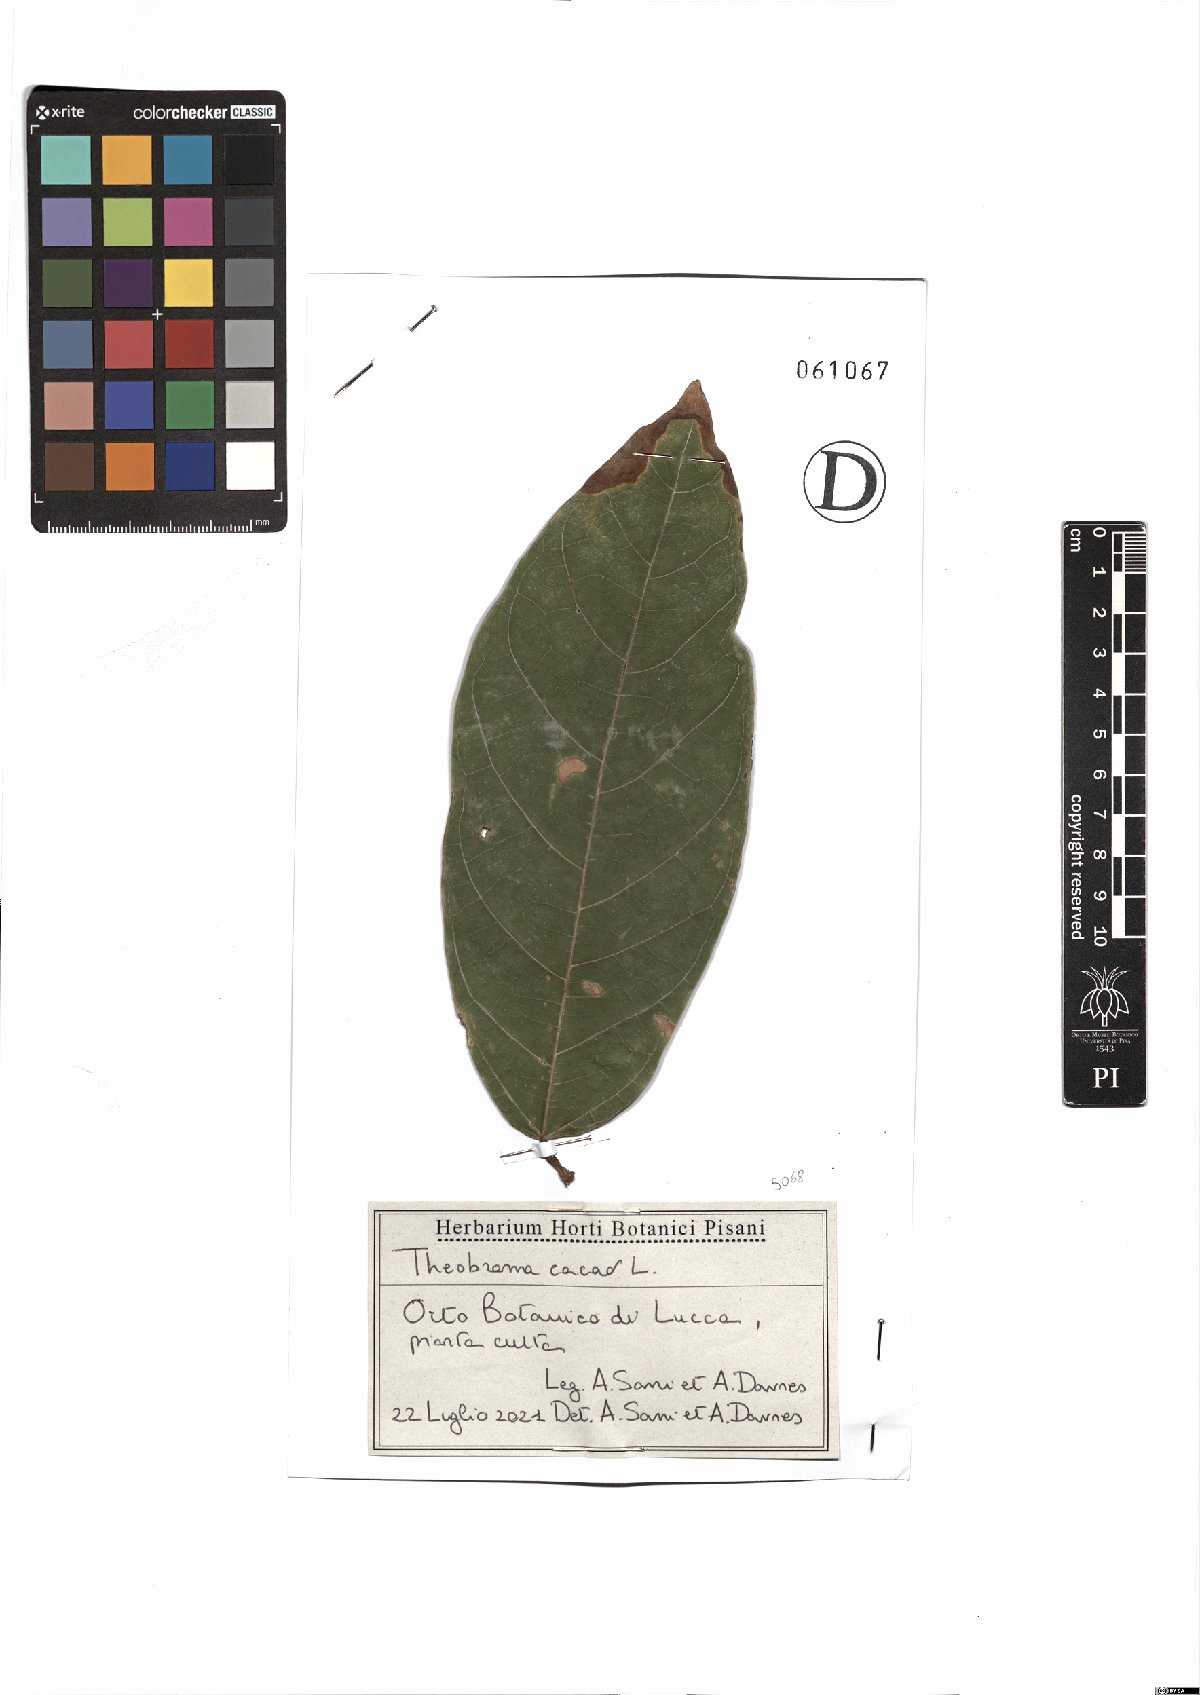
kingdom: Plantae
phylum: Tracheophyta
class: Magnoliopsida
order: Malvales
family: Malvaceae
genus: Theobroma
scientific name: Theobroma cacao
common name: Cocoa
